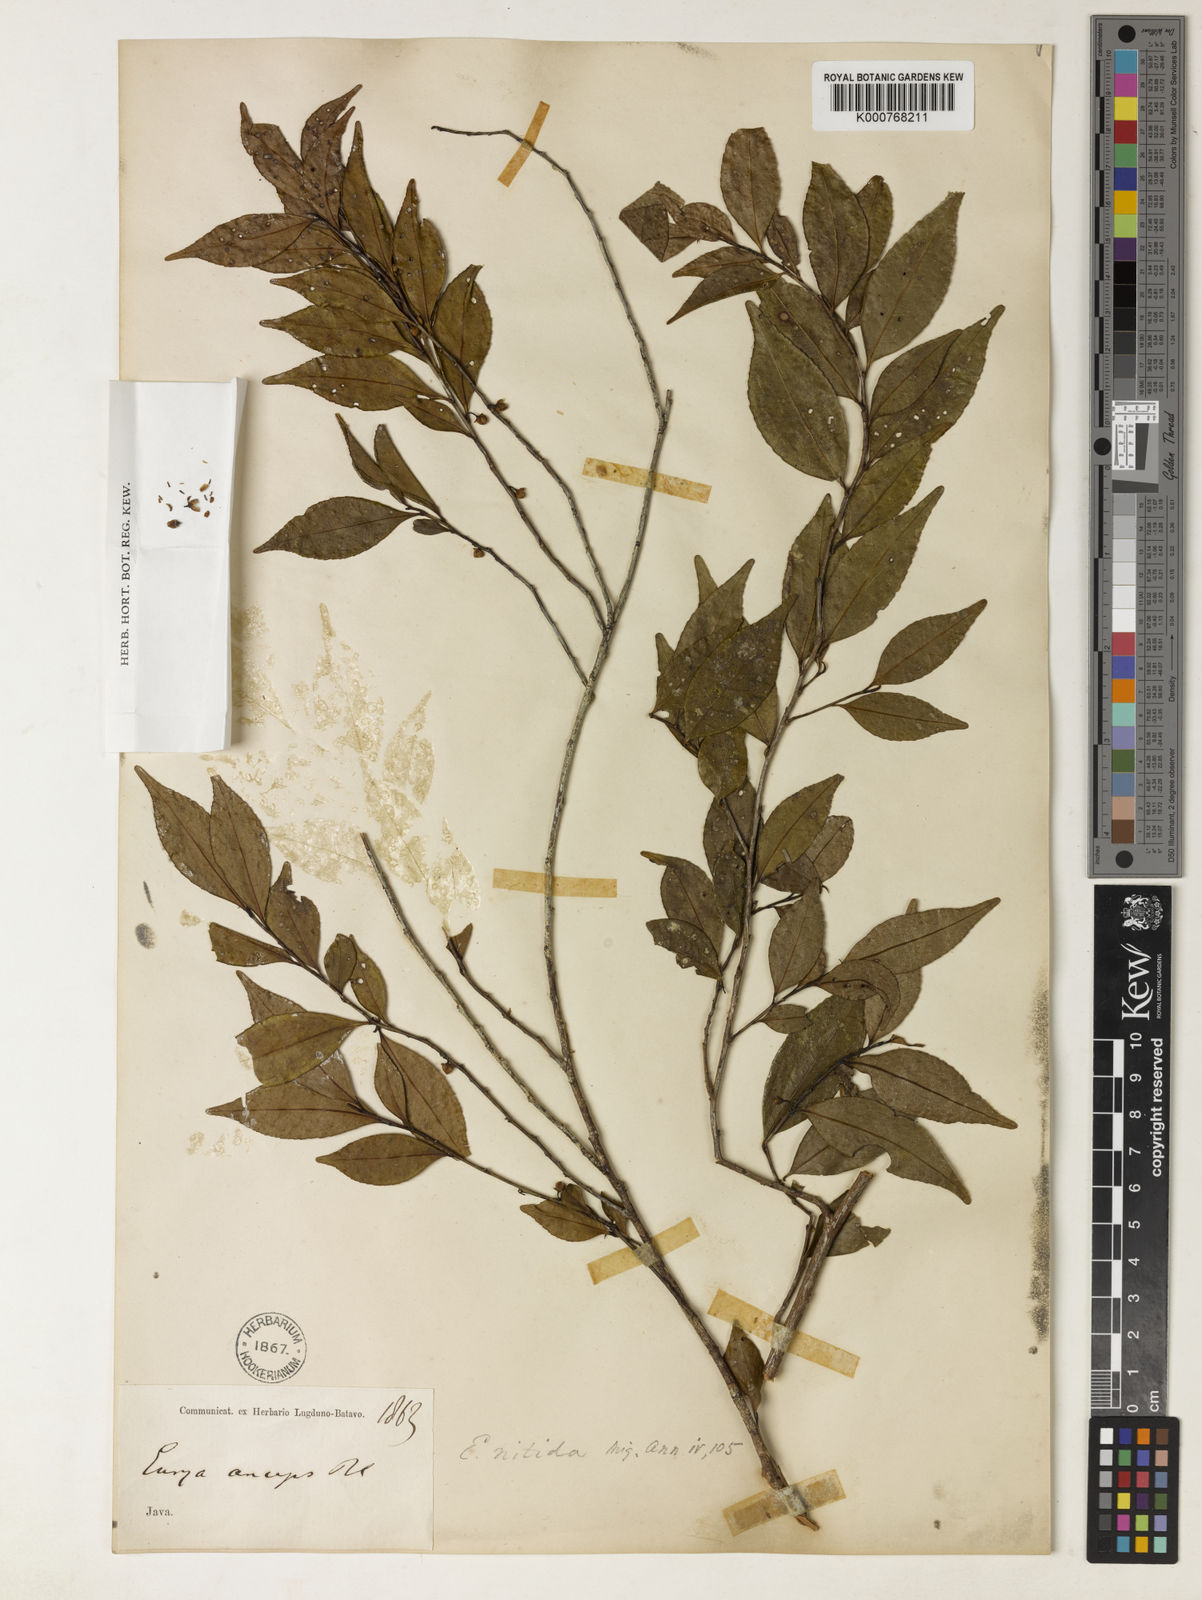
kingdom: Plantae
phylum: Tracheophyta
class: Magnoliopsida
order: Ericales
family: Pentaphylacaceae
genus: Freziera
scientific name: Freziera calophylla
